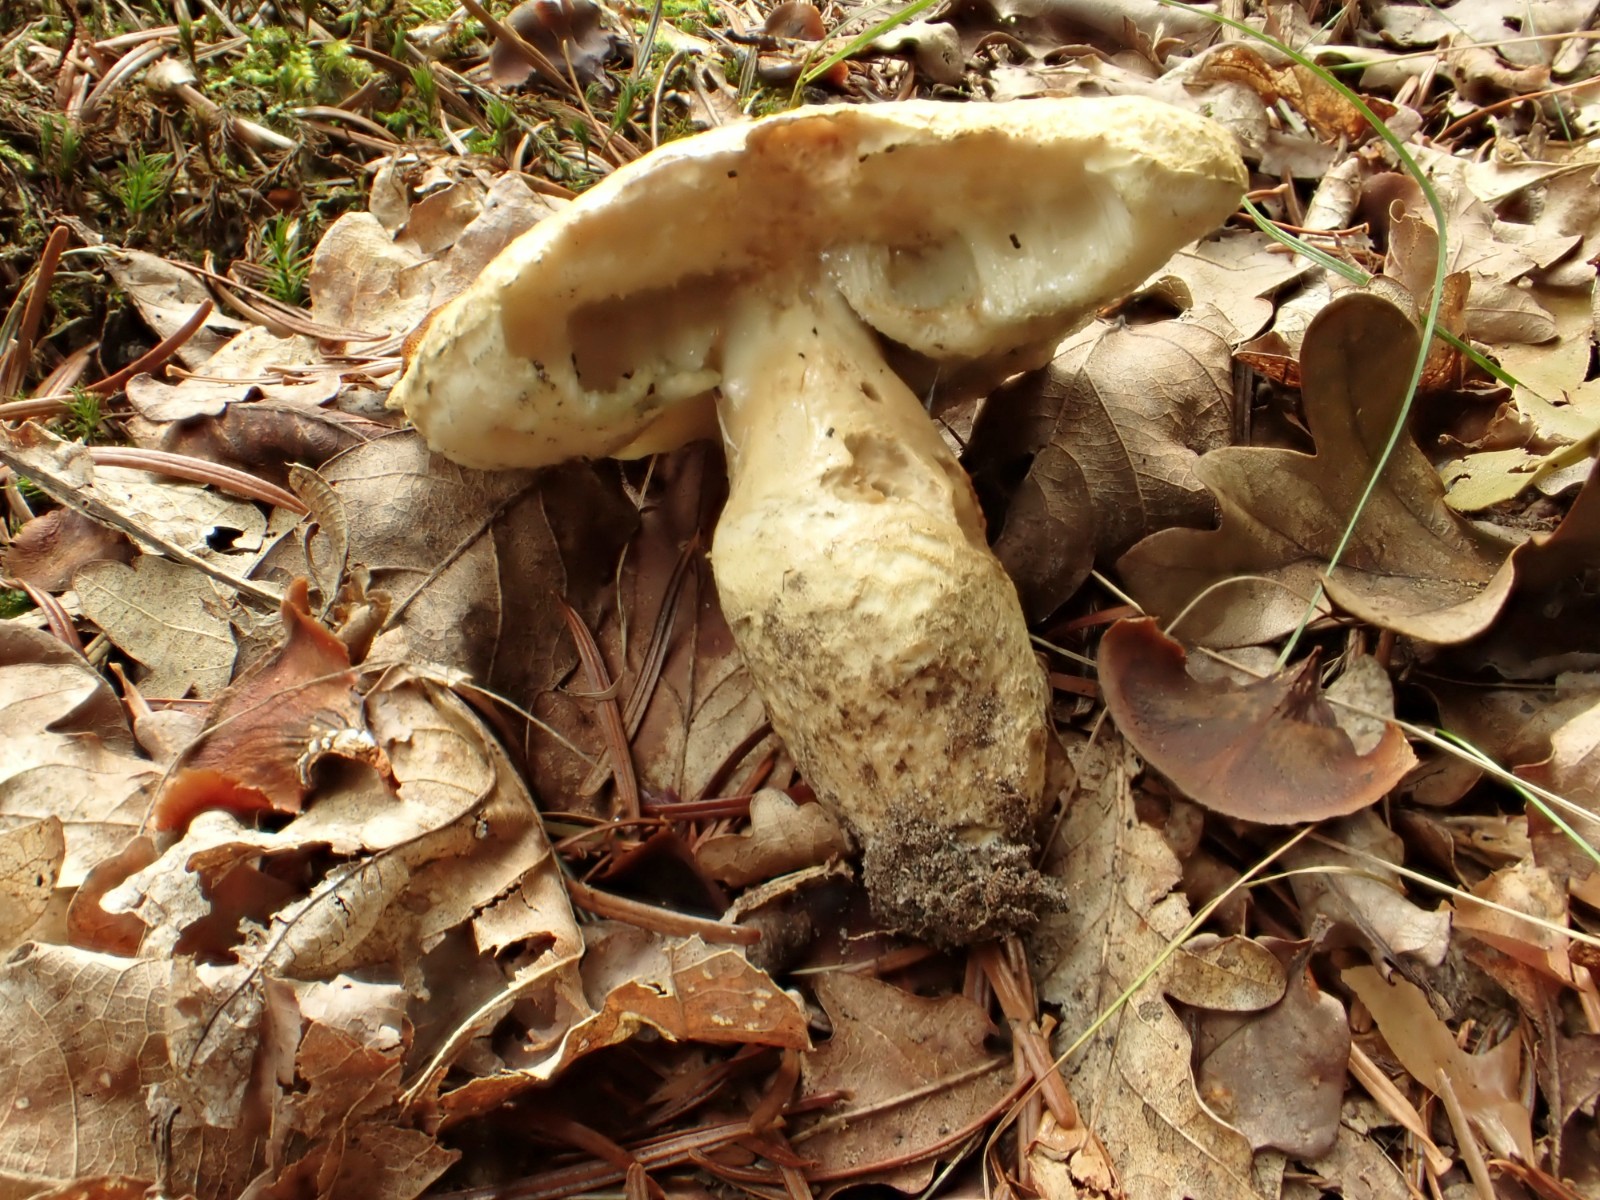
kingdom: Fungi
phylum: Basidiomycota
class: Agaricomycetes
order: Boletales
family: Gyroporaceae
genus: Gyroporus
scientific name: Gyroporus cyanescens
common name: blånende kammerrørhat
